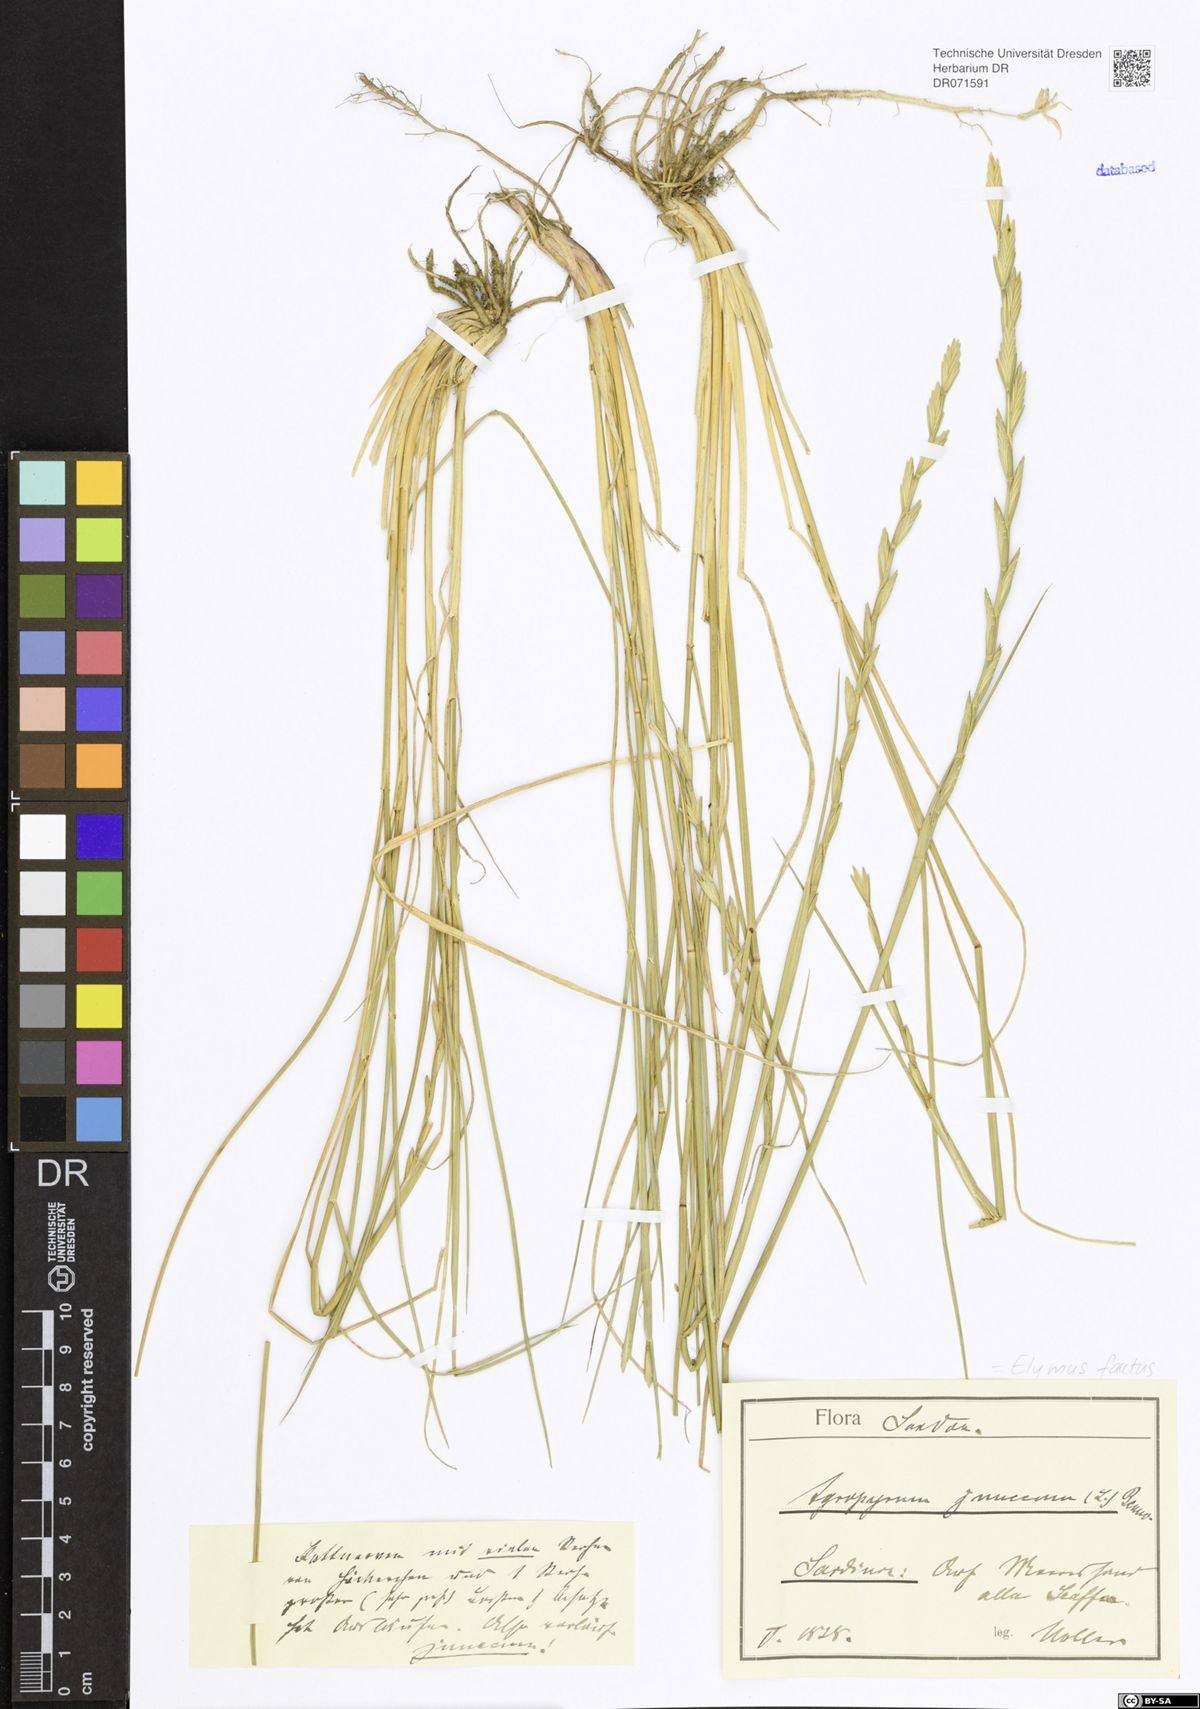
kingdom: Plantae
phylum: Tracheophyta
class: Liliopsida
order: Poales
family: Poaceae
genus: Thinopyrum
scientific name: Thinopyrum junceum
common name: Russian wheatgrass
